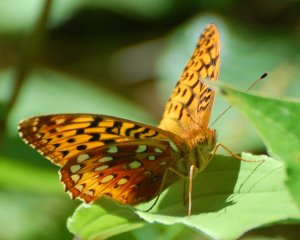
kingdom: Animalia
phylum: Arthropoda
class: Insecta
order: Lepidoptera
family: Nymphalidae
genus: Speyeria
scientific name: Speyeria cybele
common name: Great Spangled Fritillary
